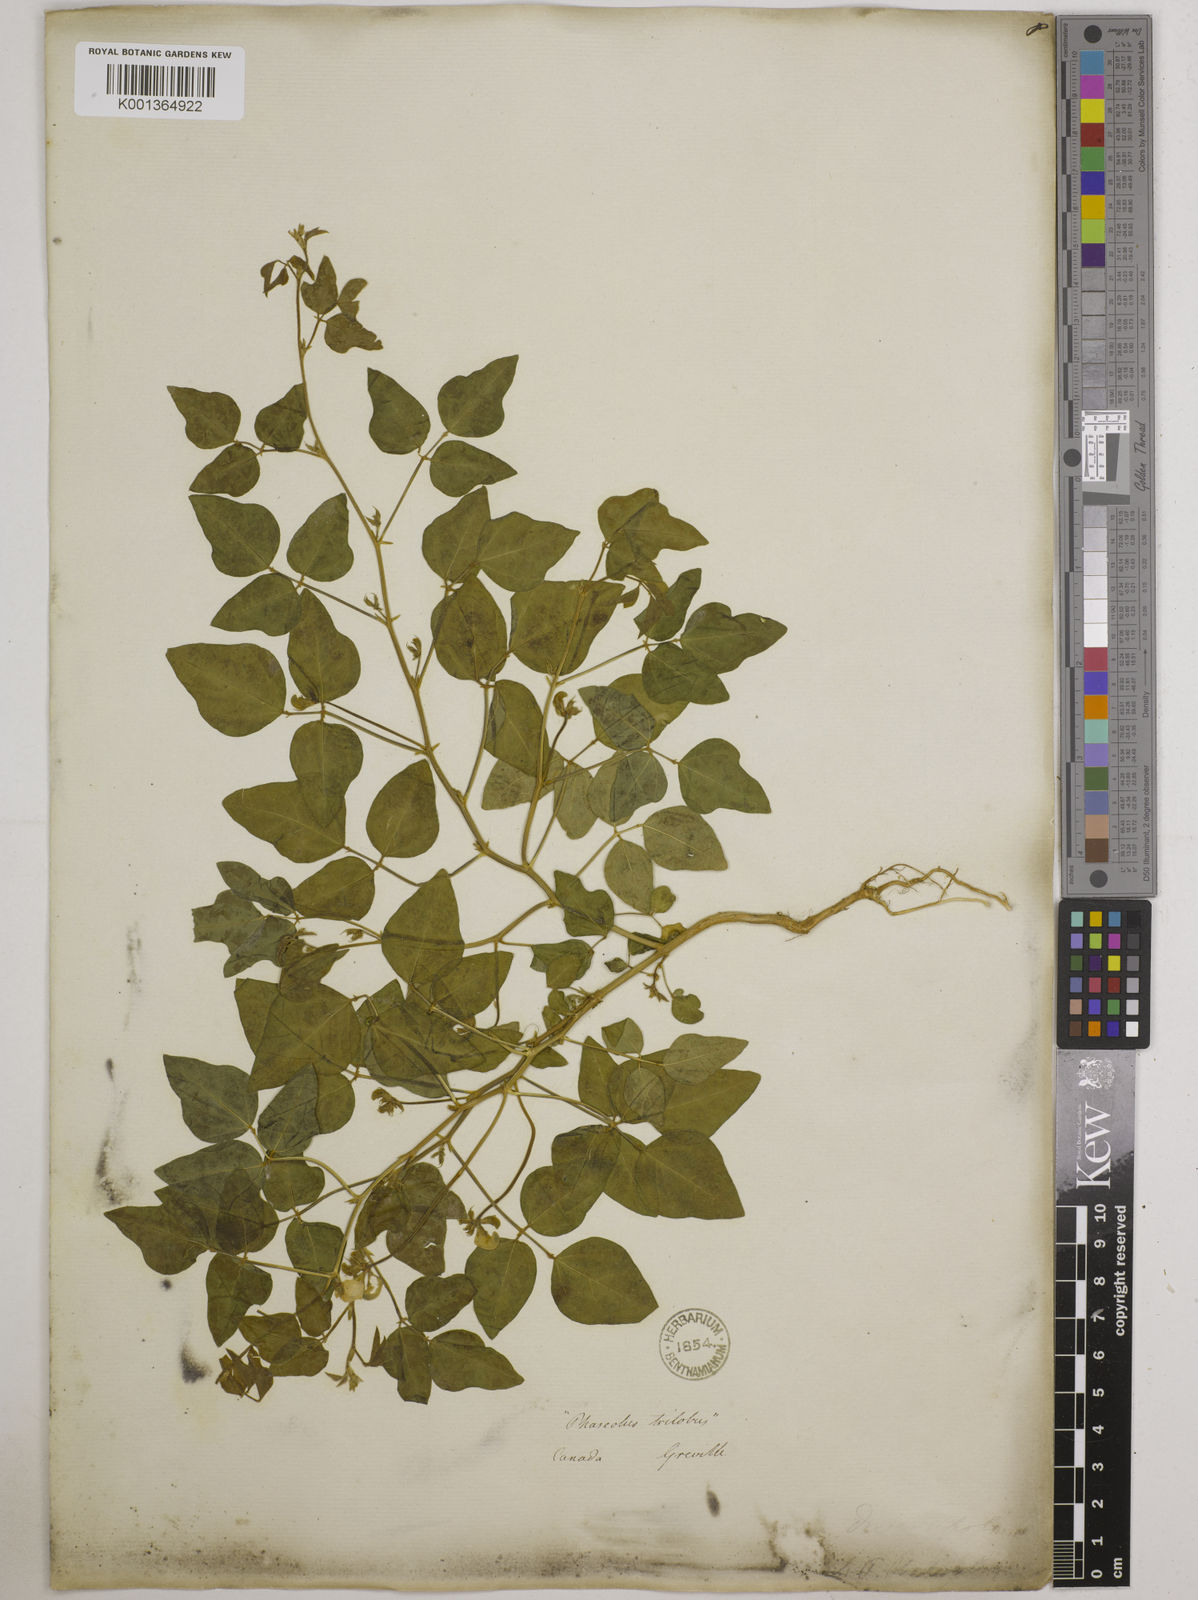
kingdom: Plantae
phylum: Tracheophyta
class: Magnoliopsida
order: Fabales
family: Fabaceae
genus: Strophostyles
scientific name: Strophostyles
